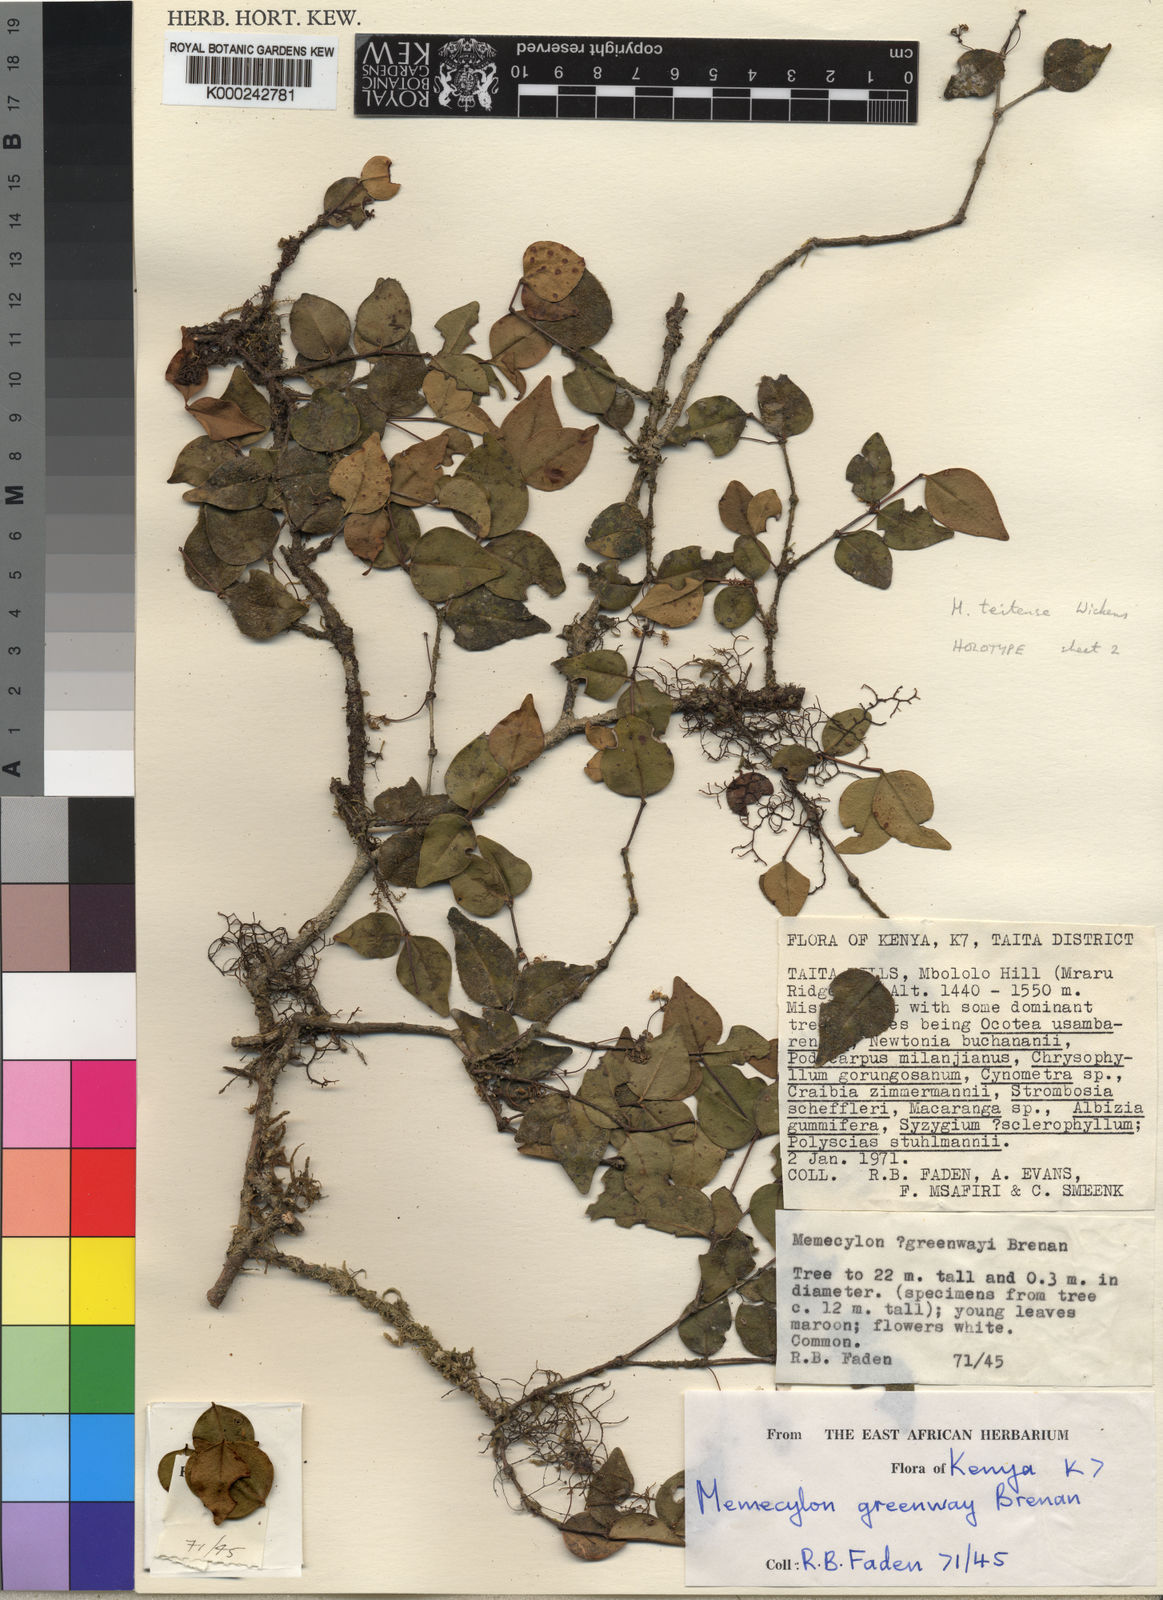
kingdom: Plantae
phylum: Tracheophyta
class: Magnoliopsida
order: Myrtales
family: Melastomataceae
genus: Memecylon
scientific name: Memecylon teitense
